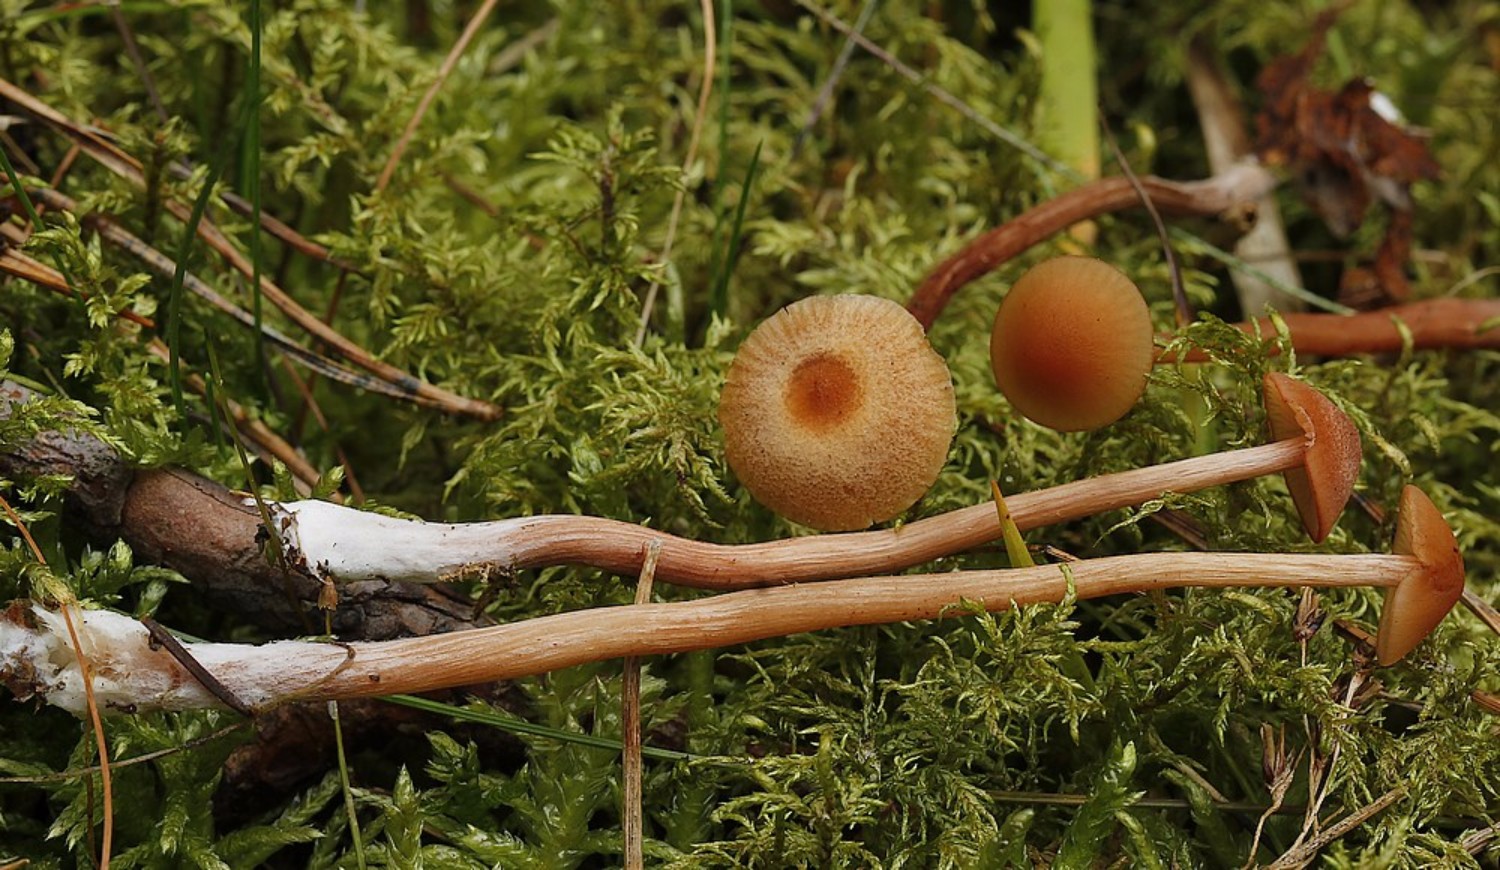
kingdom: Fungi
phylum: Basidiomycota
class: Agaricomycetes
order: Agaricales
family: Hydnangiaceae
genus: Laccaria
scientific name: Laccaria proxima
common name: stor ametysthat
